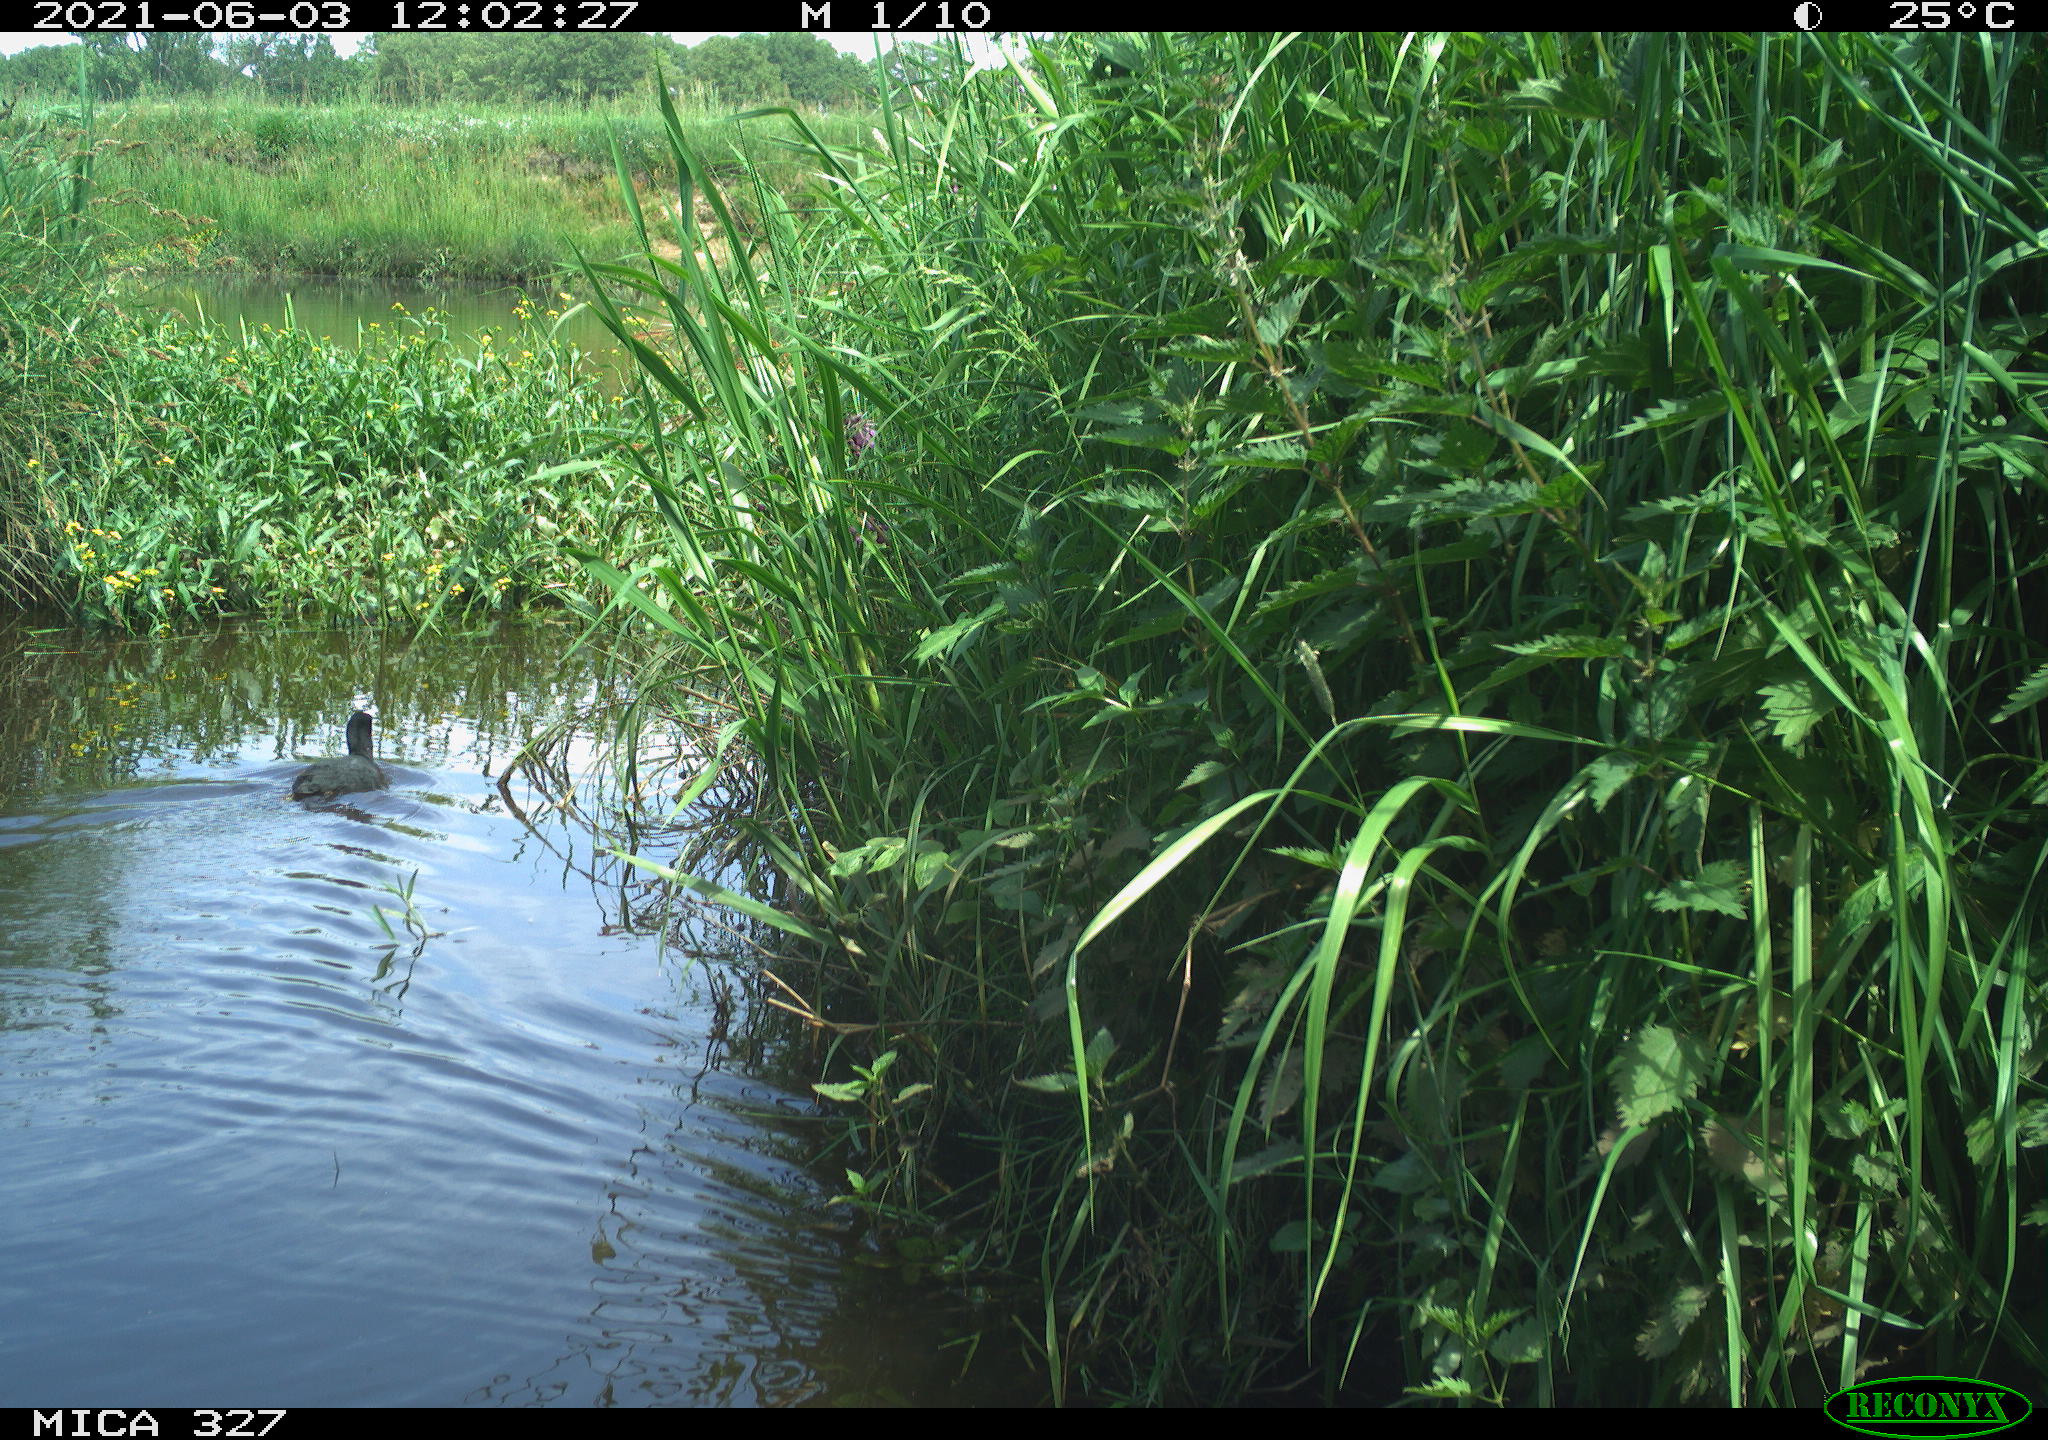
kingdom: Animalia
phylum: Chordata
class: Aves
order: Gruiformes
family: Rallidae
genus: Fulica
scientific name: Fulica atra
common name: Eurasian coot
